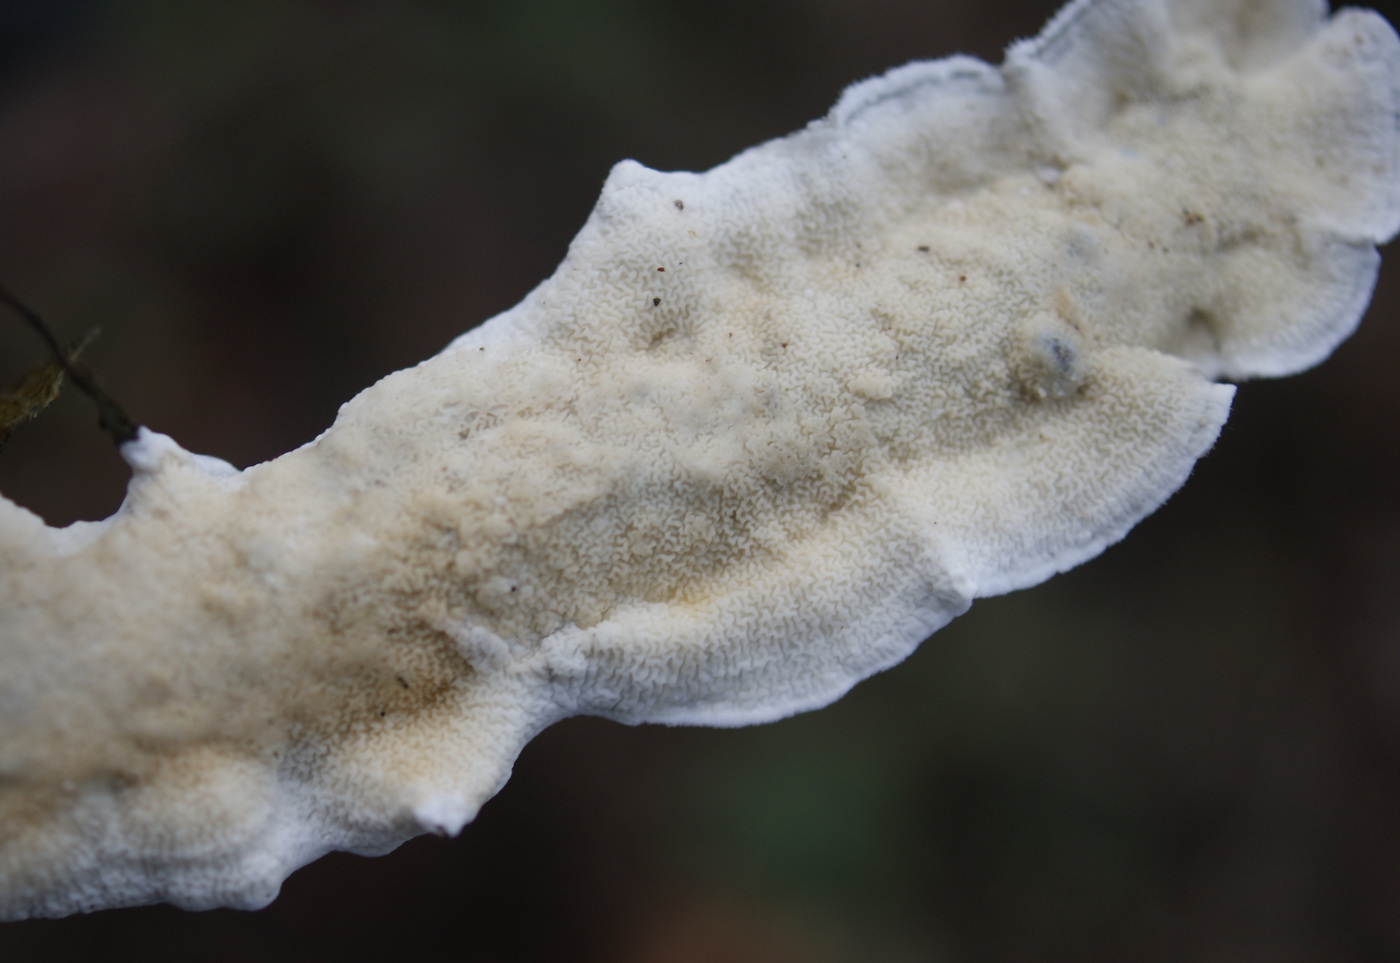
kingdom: Fungi
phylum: Basidiomycota
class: Agaricomycetes
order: Polyporales
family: Irpicaceae
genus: Byssomerulius
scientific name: Byssomerulius corium
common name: læder-åresvamp
